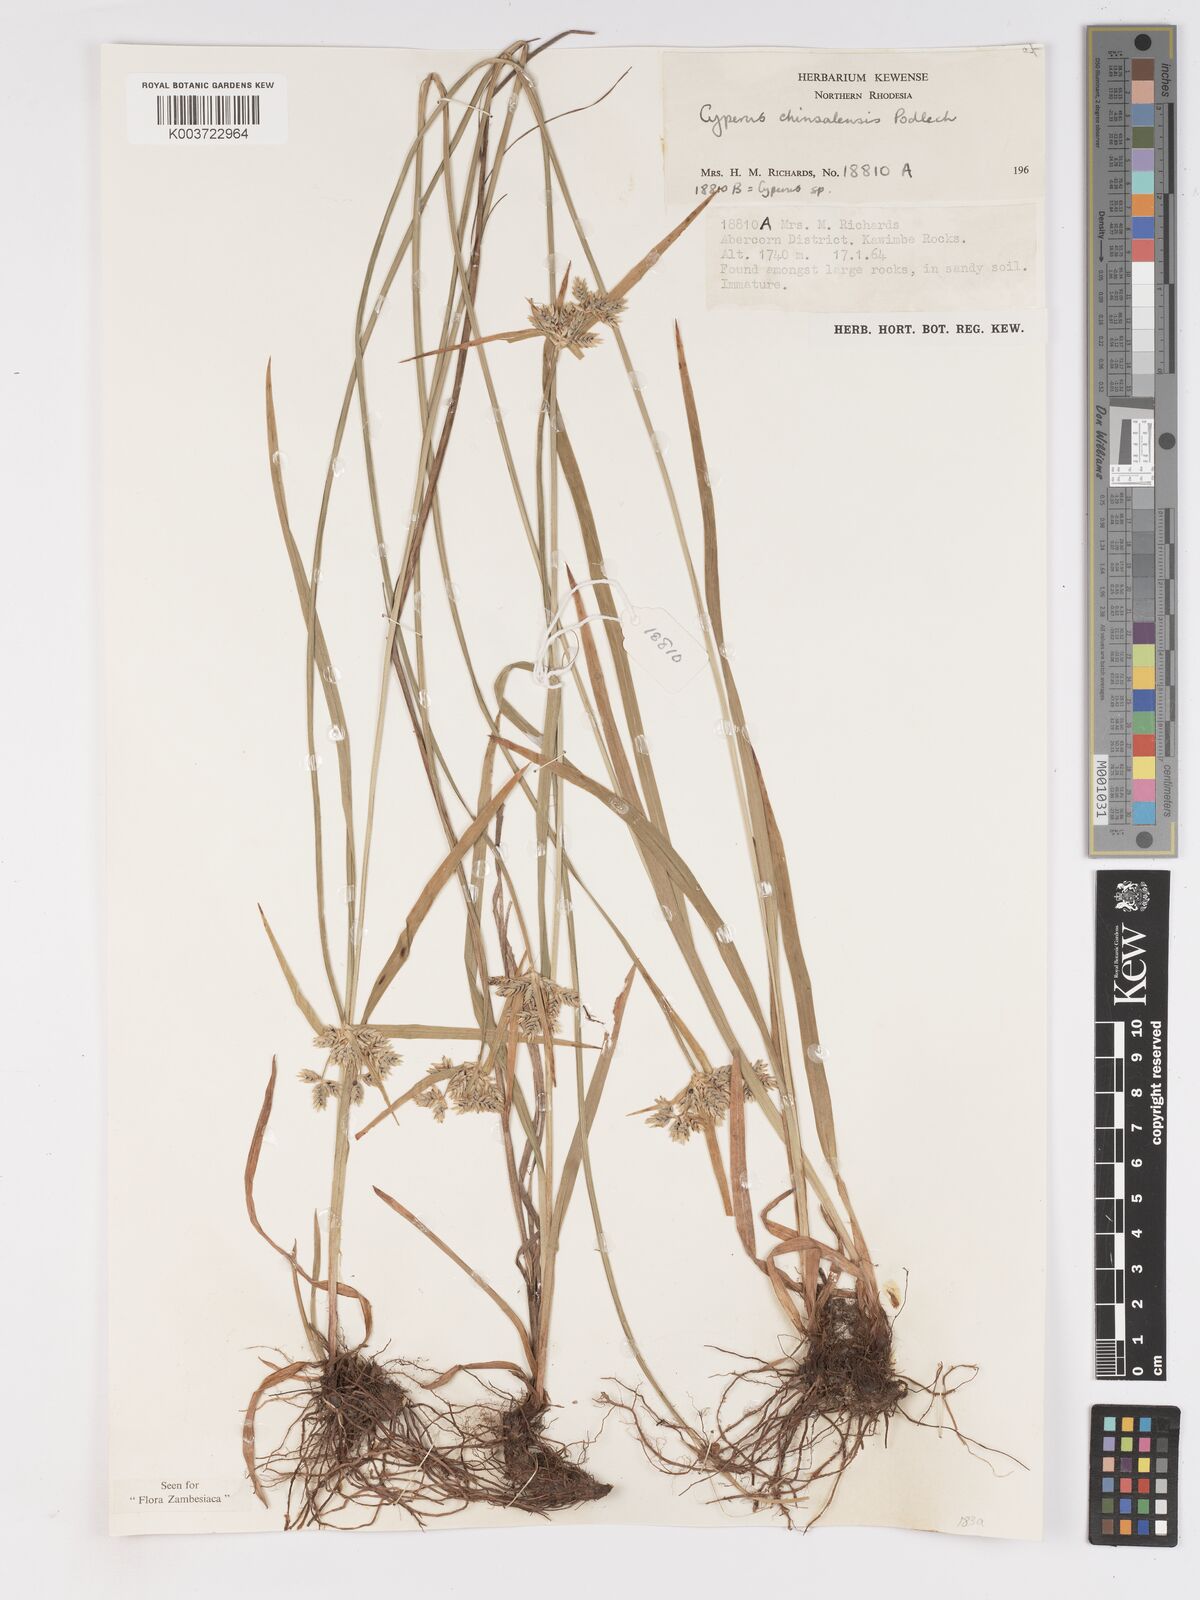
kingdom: Plantae
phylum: Tracheophyta
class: Liliopsida
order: Poales
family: Cyperaceae
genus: Cyperus
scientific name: Cyperus chinsalensis
